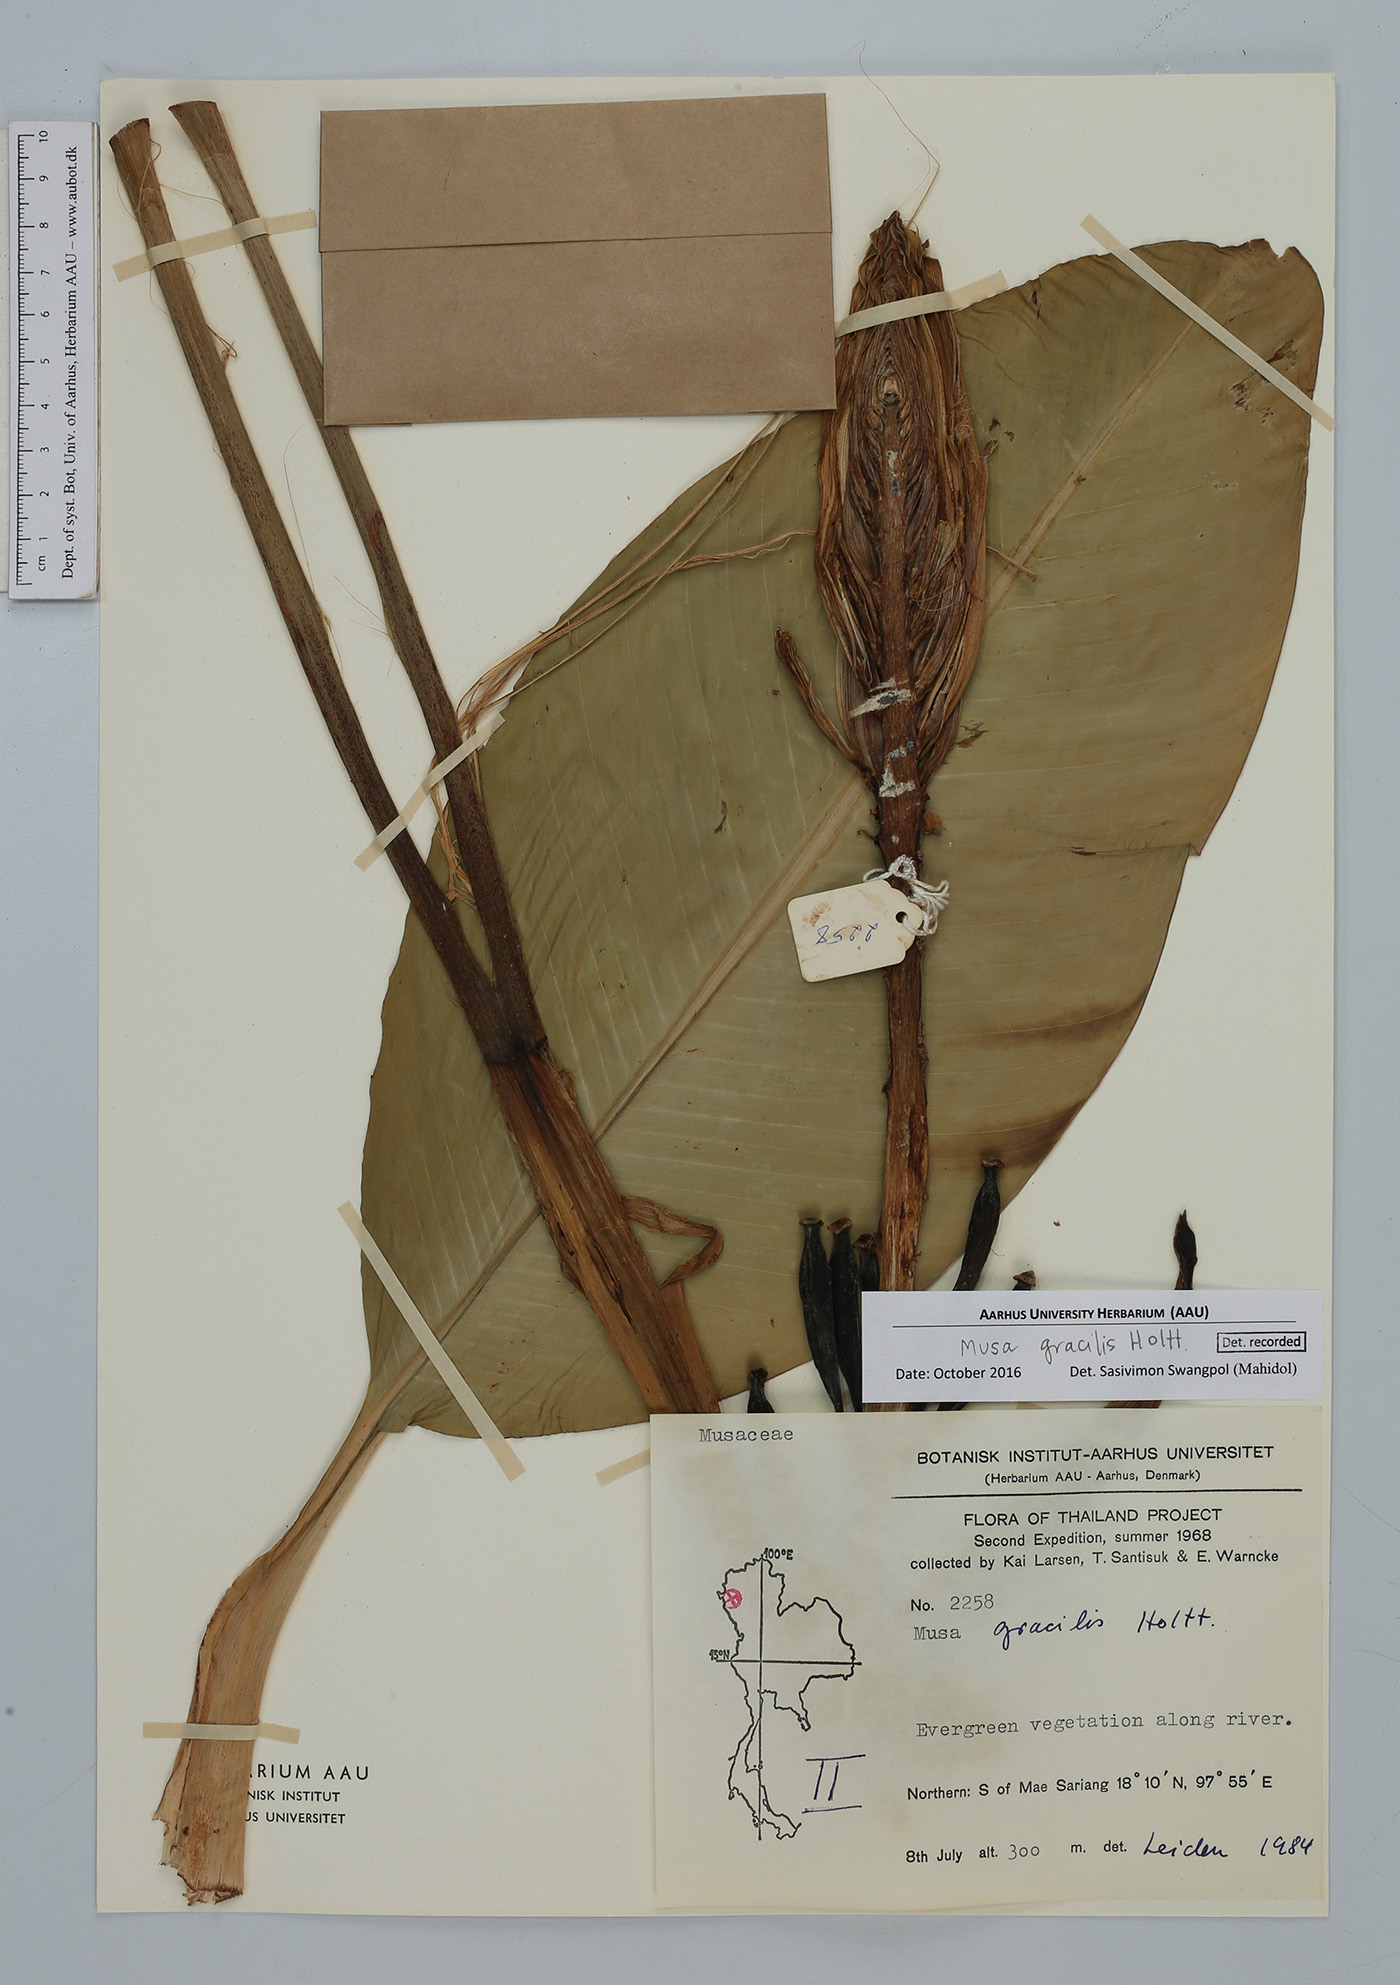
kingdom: Plantae
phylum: Tracheophyta
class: Liliopsida
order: Zingiberales
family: Musaceae
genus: Musa
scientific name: Musa gracilis
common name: Johore banana
